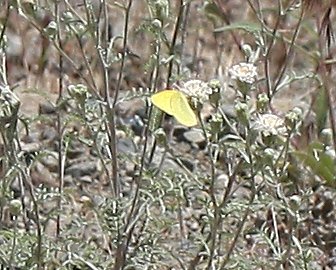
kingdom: Animalia
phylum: Arthropoda
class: Insecta
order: Lepidoptera
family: Pieridae
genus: Colias
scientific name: Colias
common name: Clouded Yellows
